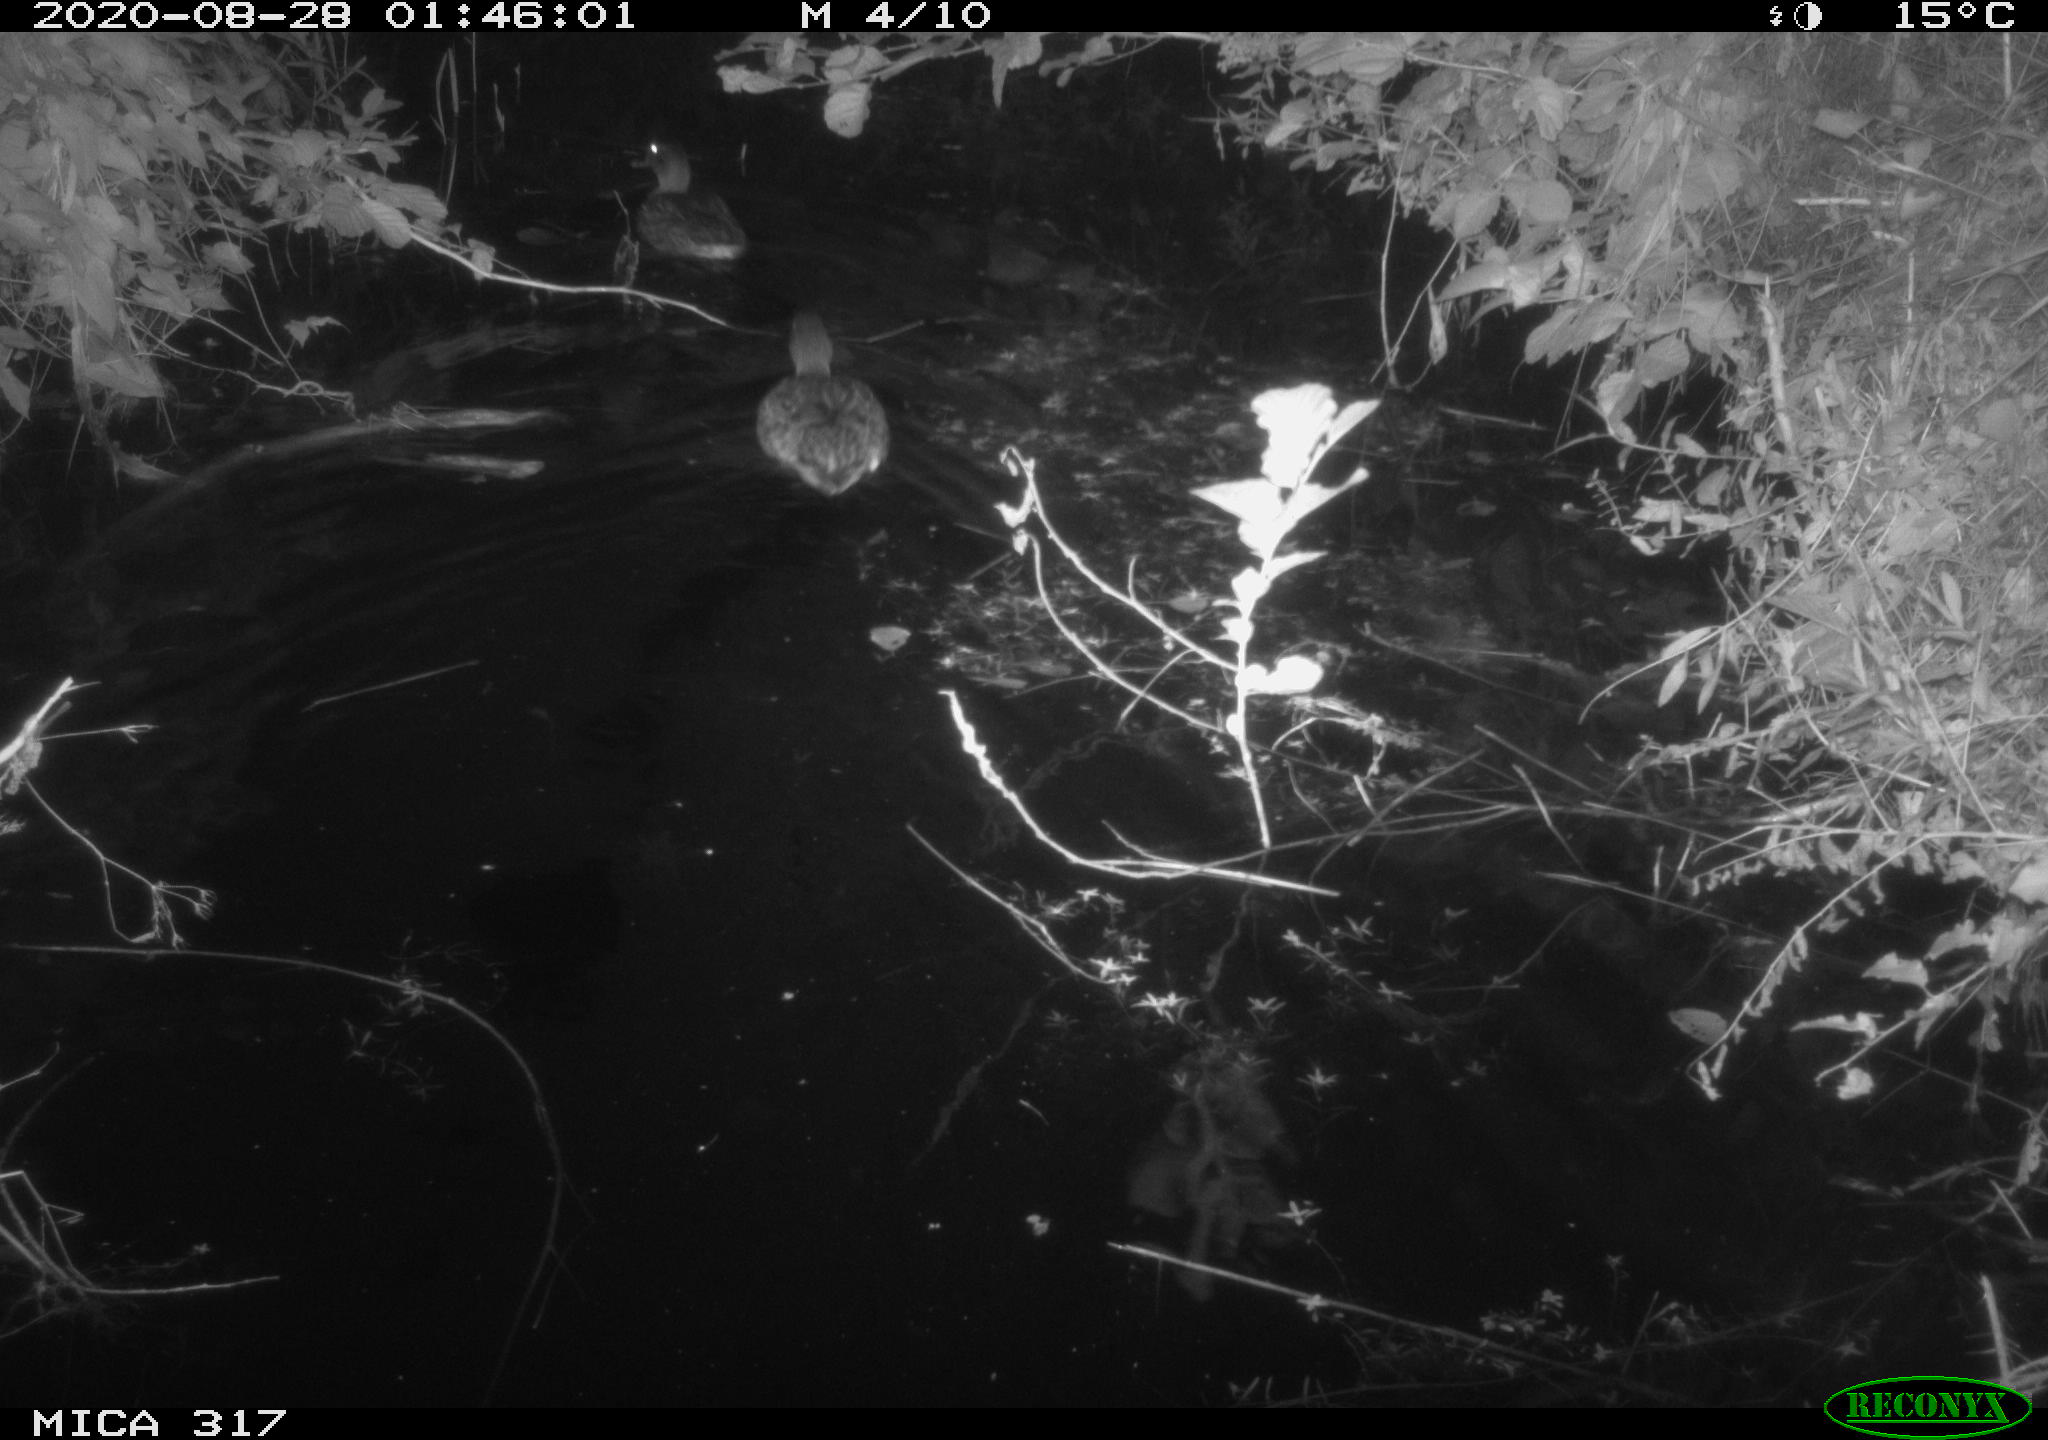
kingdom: Animalia
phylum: Chordata
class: Aves
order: Anseriformes
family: Anatidae
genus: Anas
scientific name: Anas platyrhynchos
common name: Mallard
